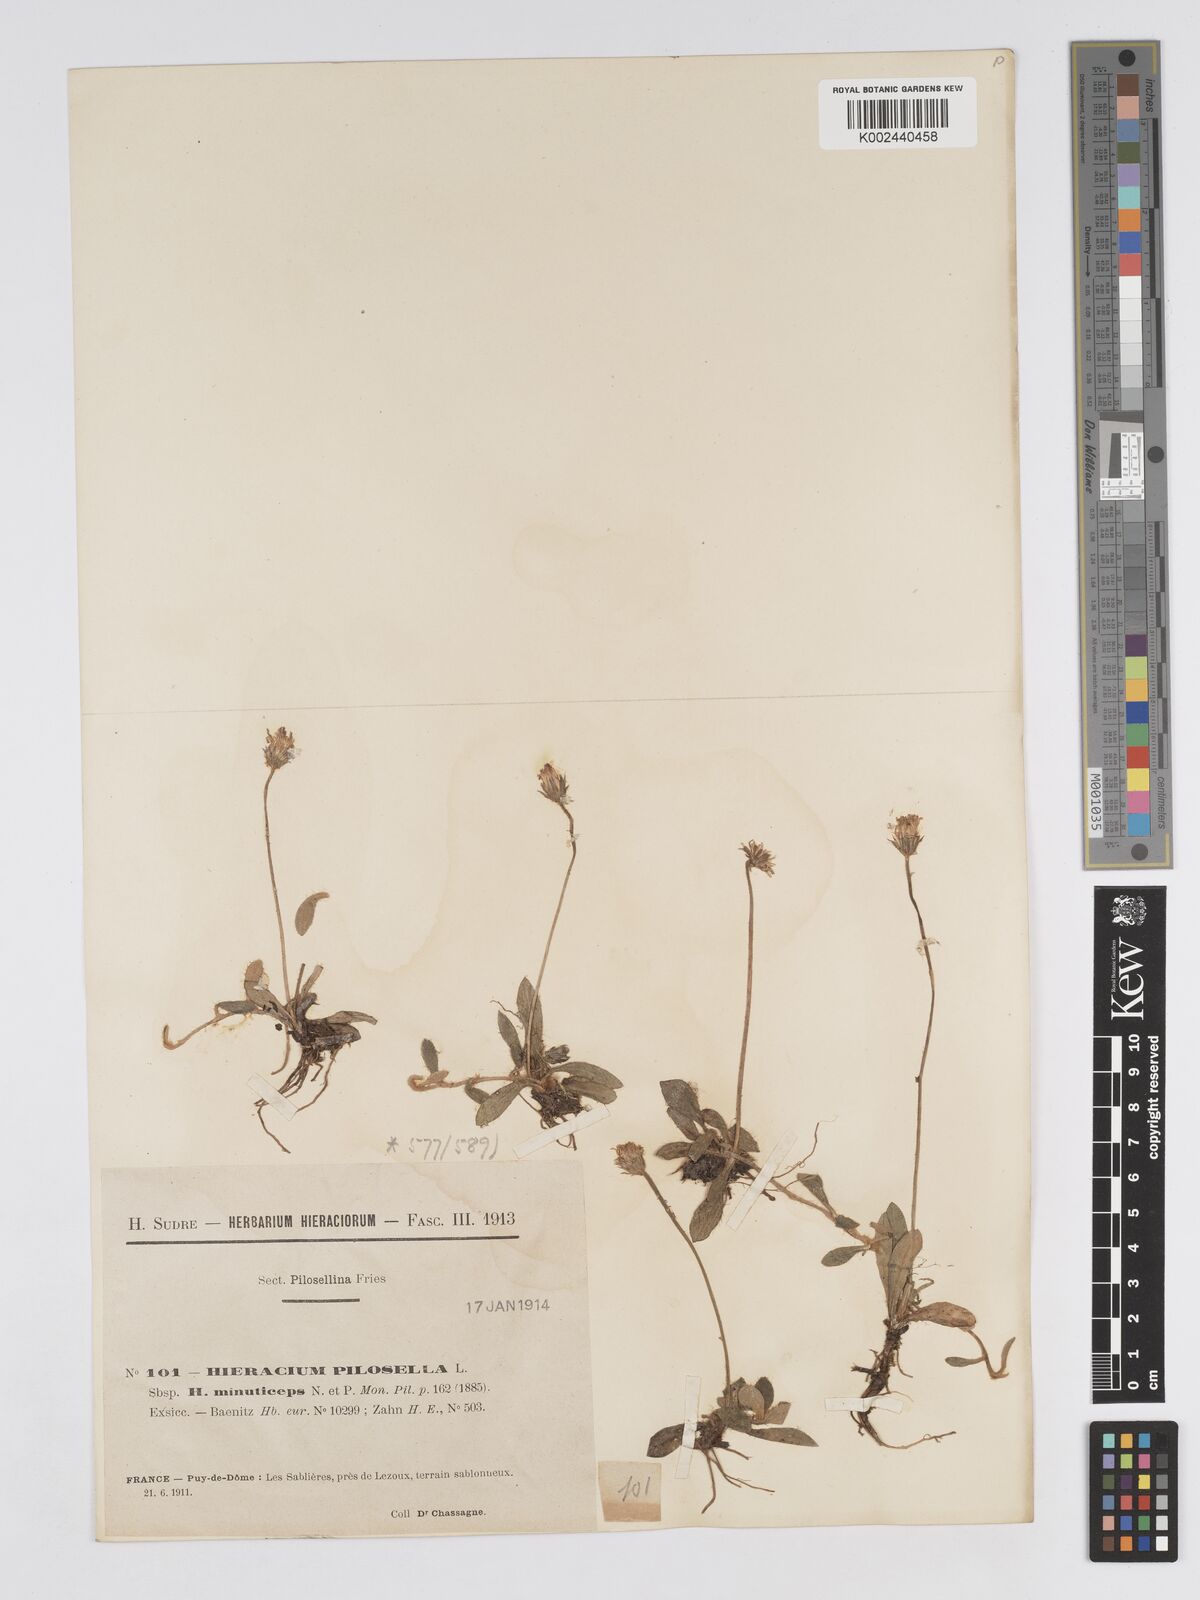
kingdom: Plantae
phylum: Tracheophyta
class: Magnoliopsida
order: Asterales
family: Asteraceae
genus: Pilosella
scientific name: Pilosella officinarum
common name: Mouse-ear hawkweed
